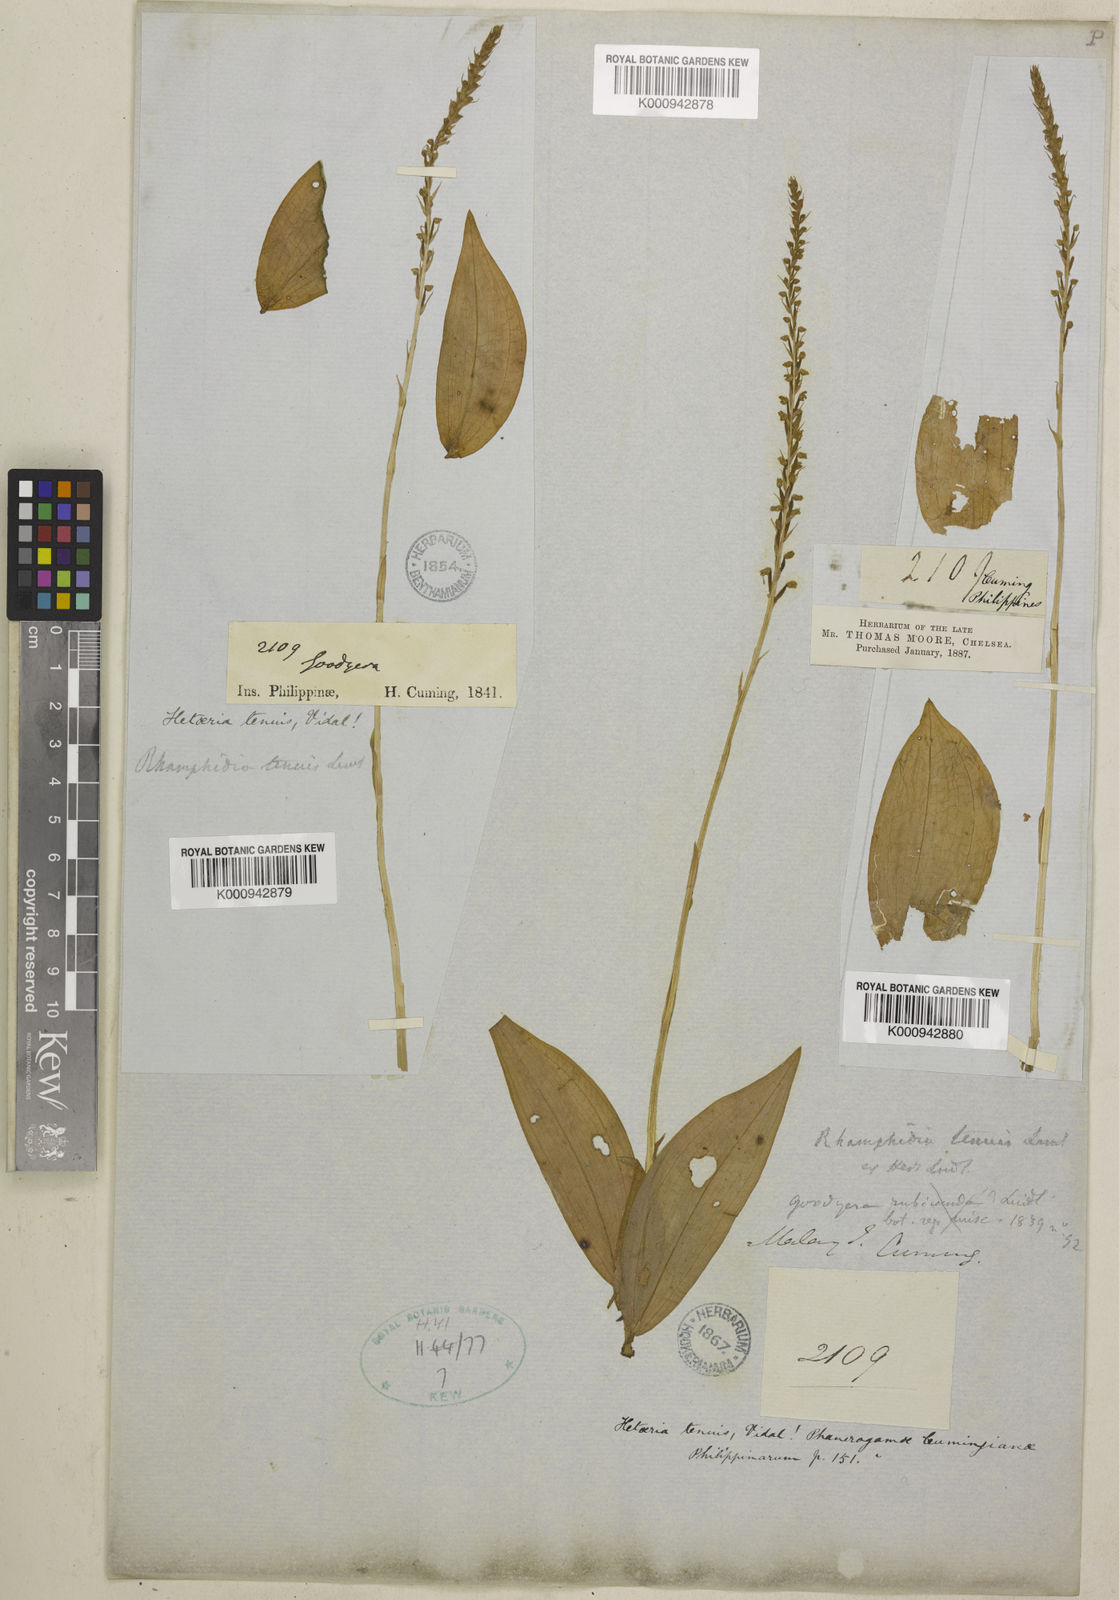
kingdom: Plantae
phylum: Tracheophyta
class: Liliopsida
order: Asparagales
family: Orchidaceae
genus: Hetaeria
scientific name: Hetaeria oblongifolia
